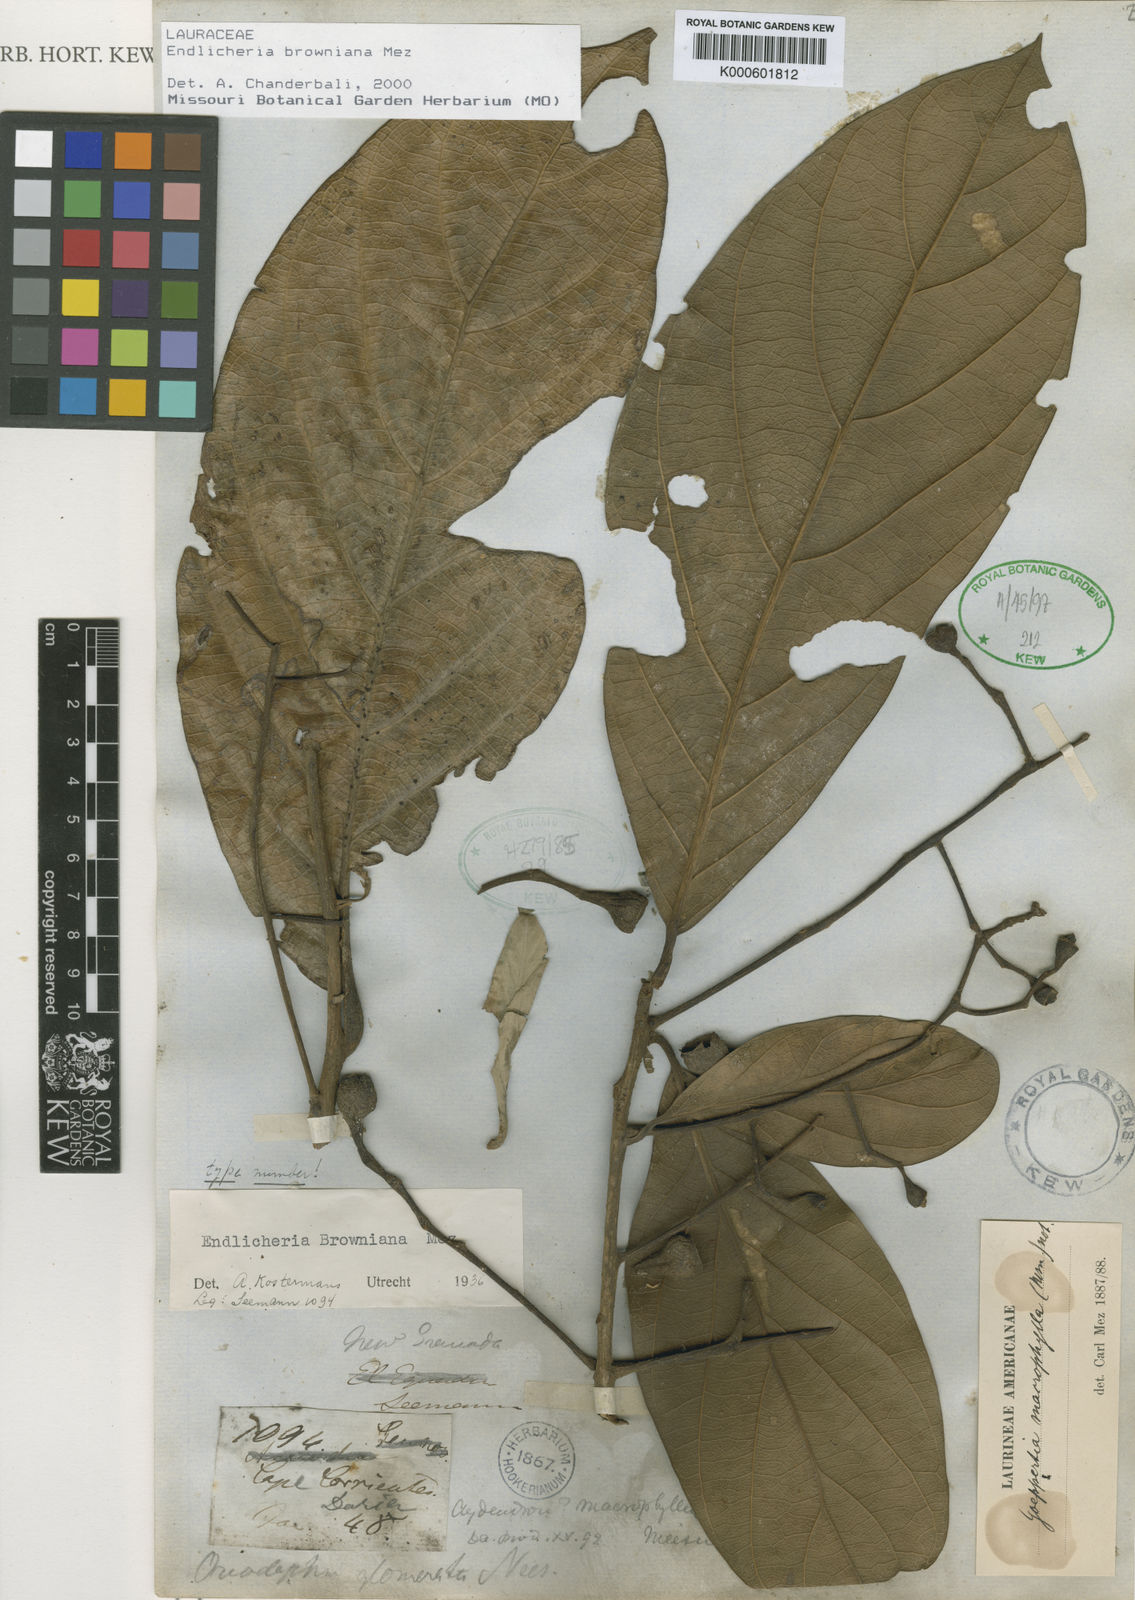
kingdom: Plantae
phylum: Tracheophyta
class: Magnoliopsida
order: Laurales
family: Lauraceae
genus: Endlicheria
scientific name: Endlicheria browniana
